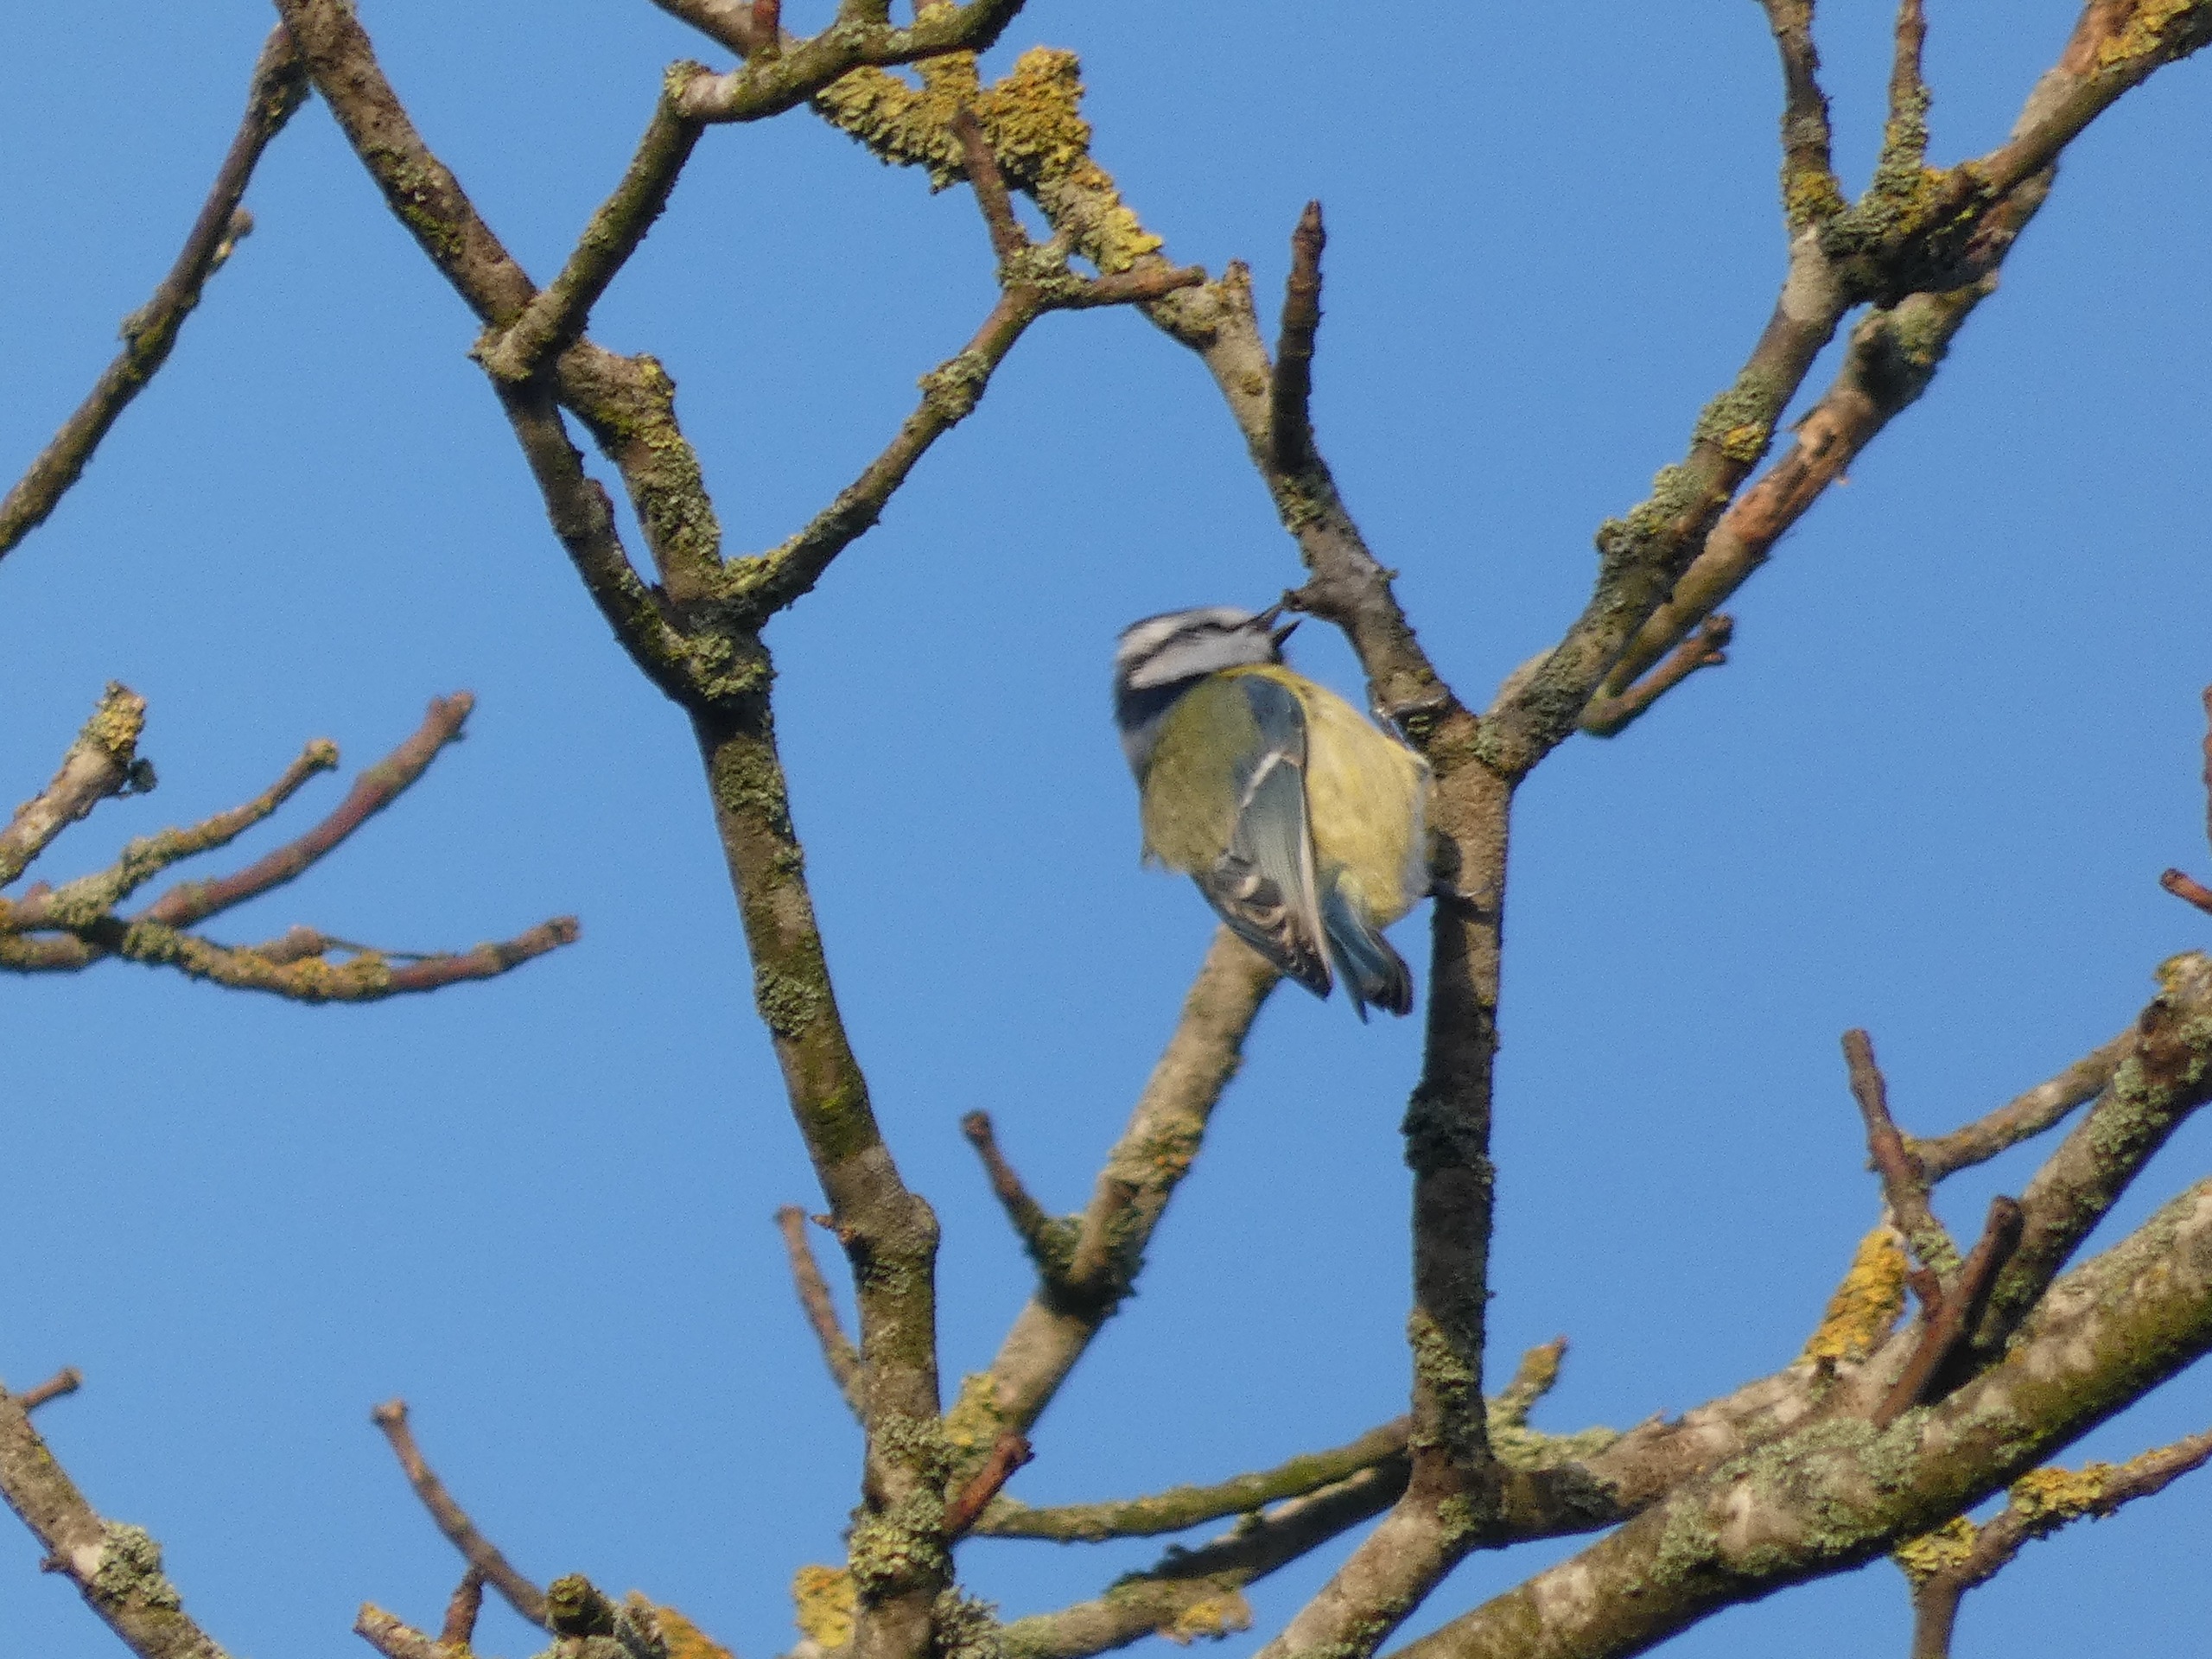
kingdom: Animalia
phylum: Chordata
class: Aves
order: Passeriformes
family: Paridae
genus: Cyanistes
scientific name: Cyanistes caeruleus
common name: Blåmejse
